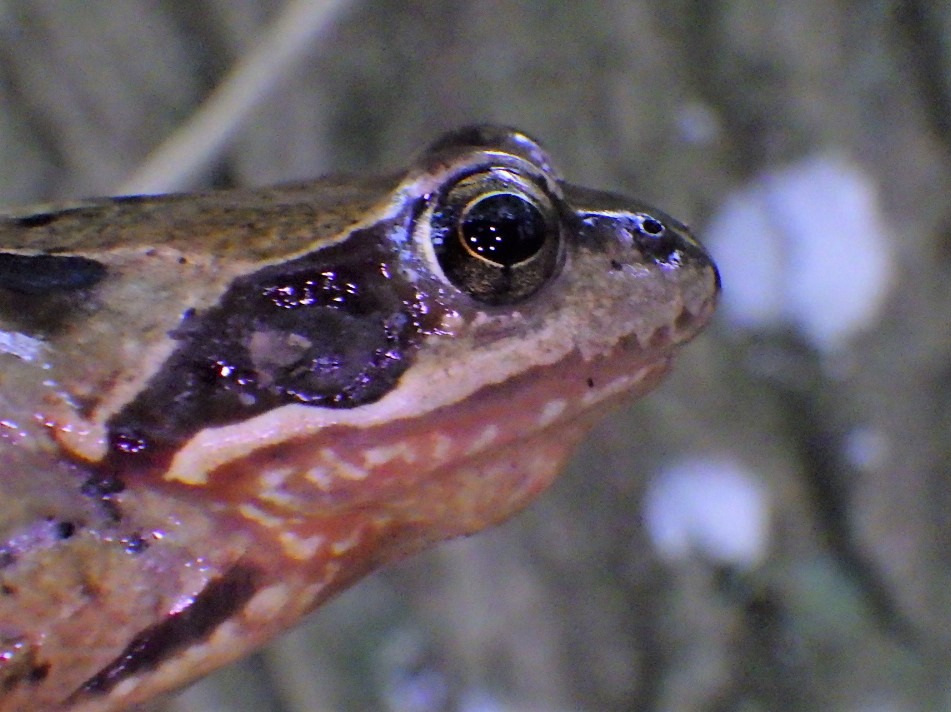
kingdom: Animalia
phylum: Chordata
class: Amphibia
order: Anura
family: Ranidae
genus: Rana
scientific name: Rana temporaria
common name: Butsnudet frø
